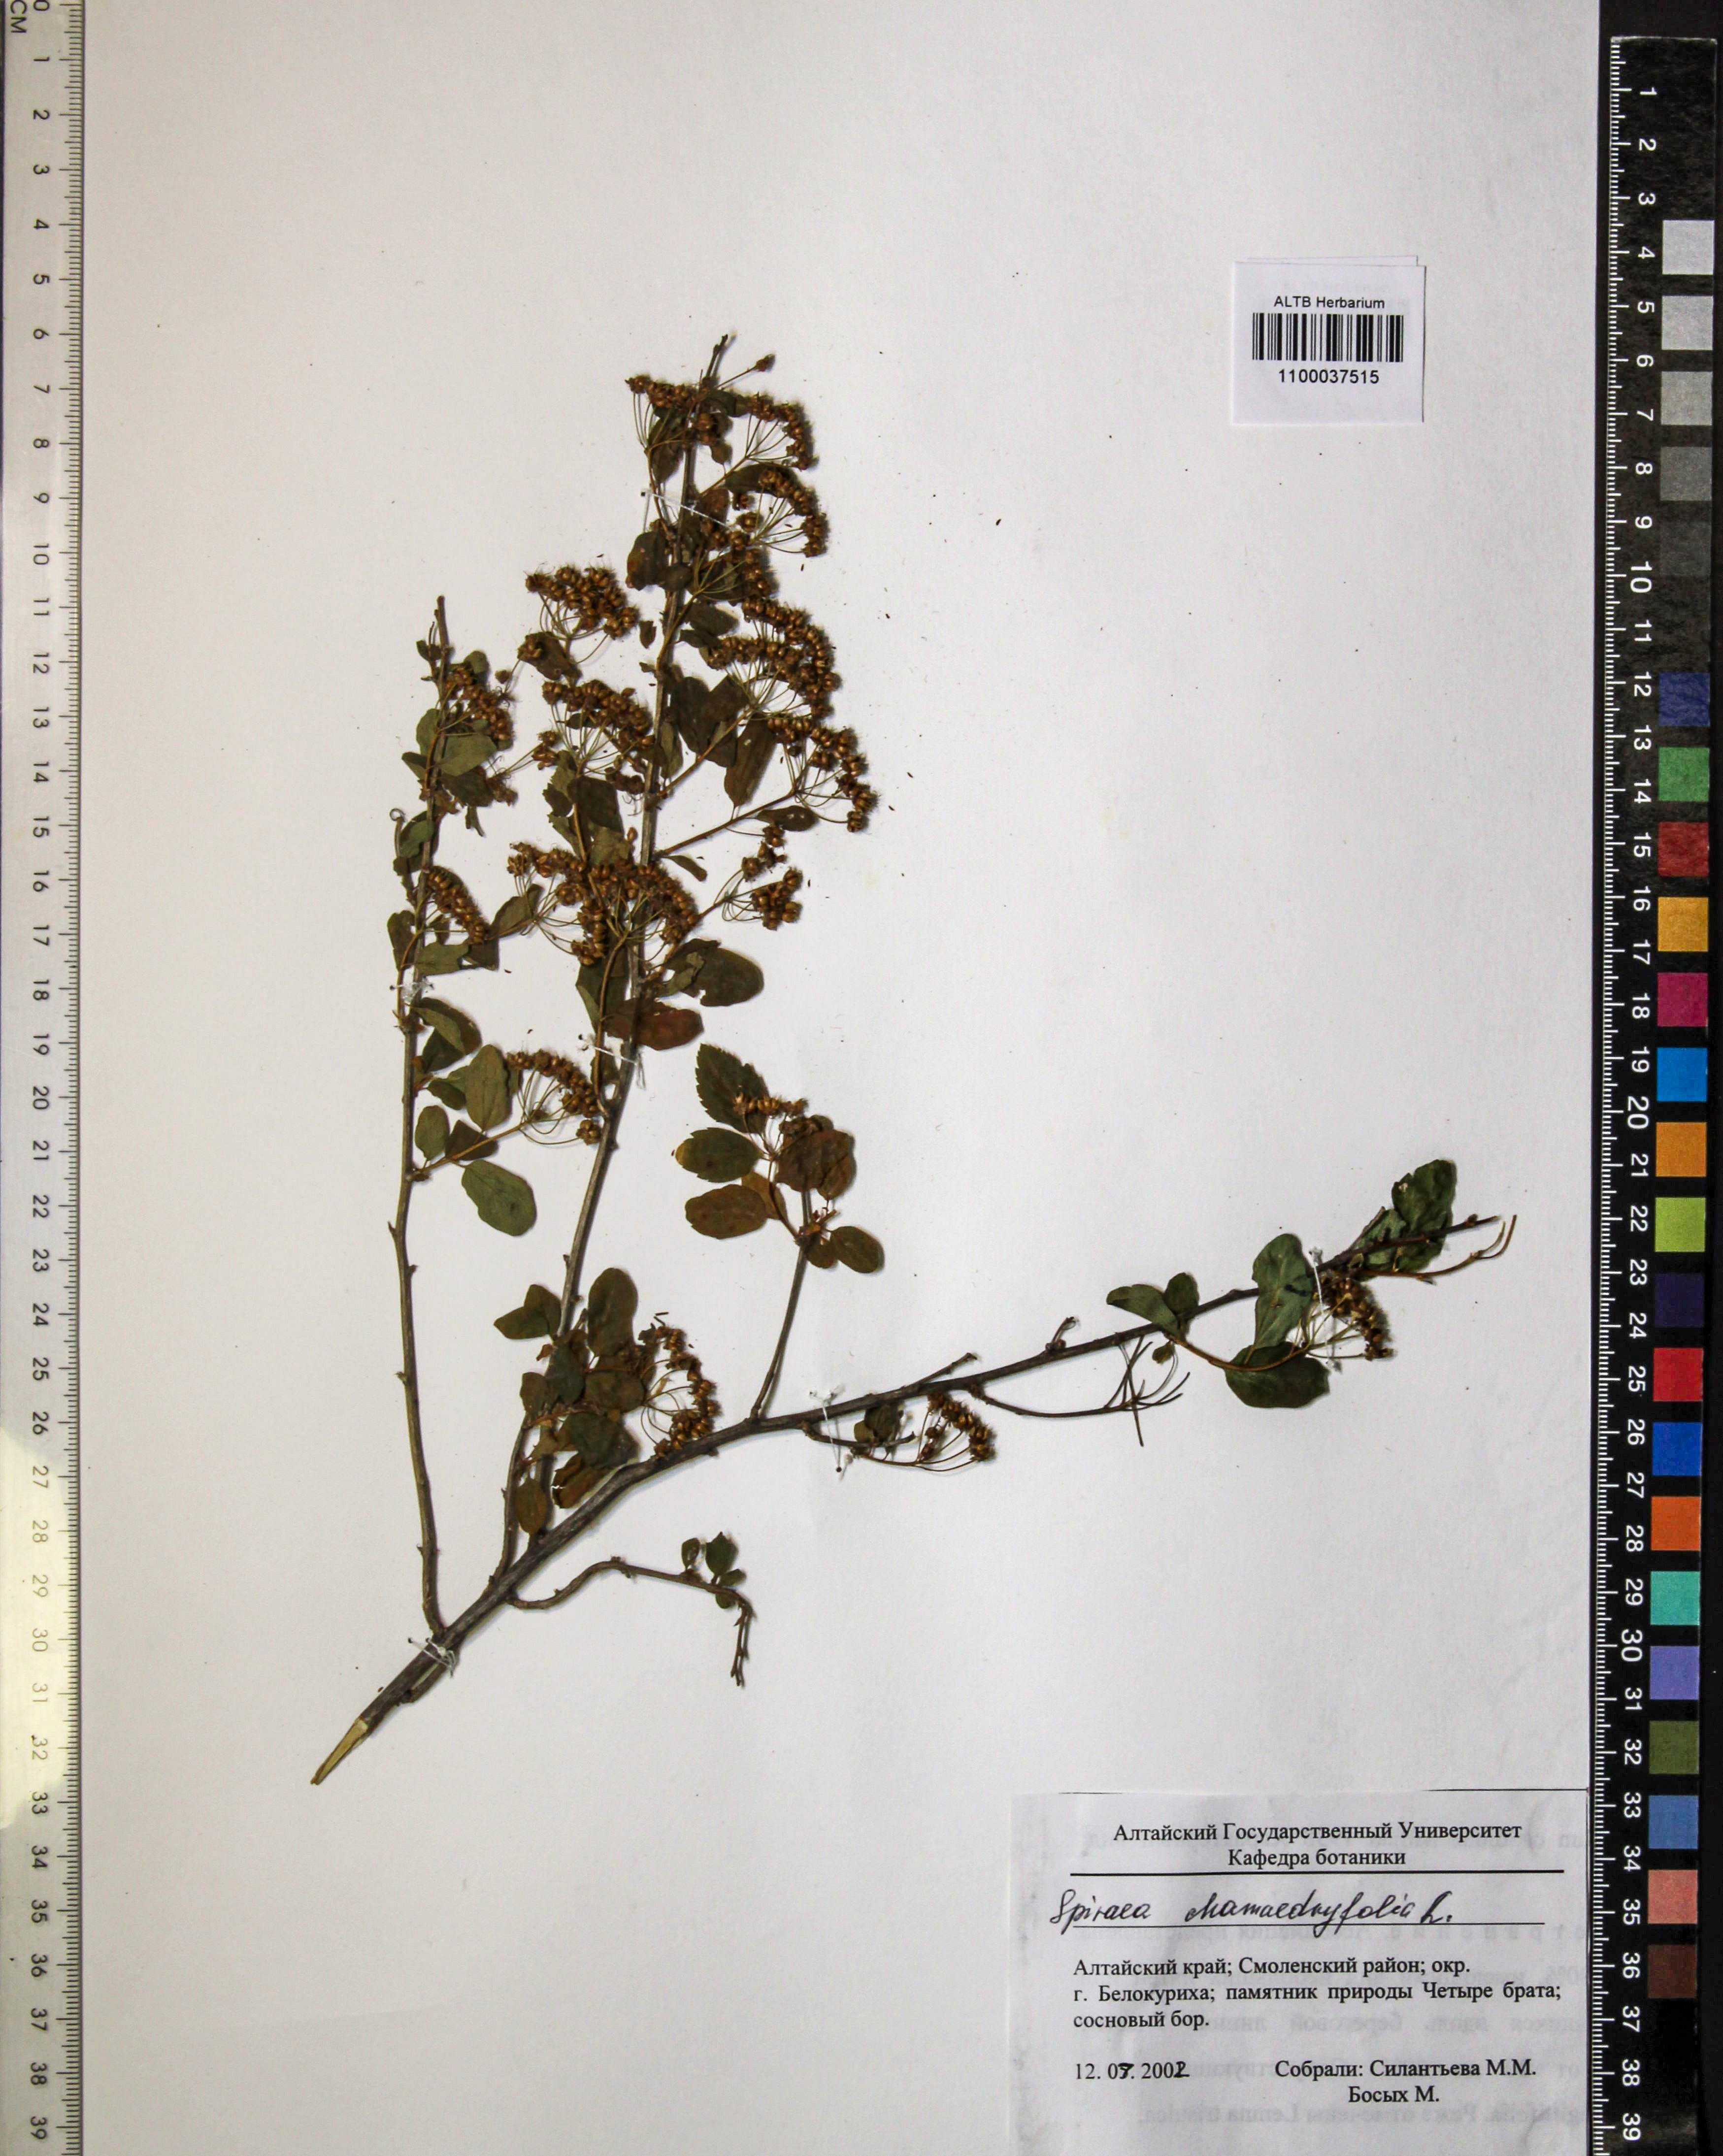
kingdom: Plantae
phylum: Tracheophyta
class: Magnoliopsida
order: Rosales
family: Rosaceae
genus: Spiraea
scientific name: Spiraea chamaedryfolia
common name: Elm-leaved spiraea
